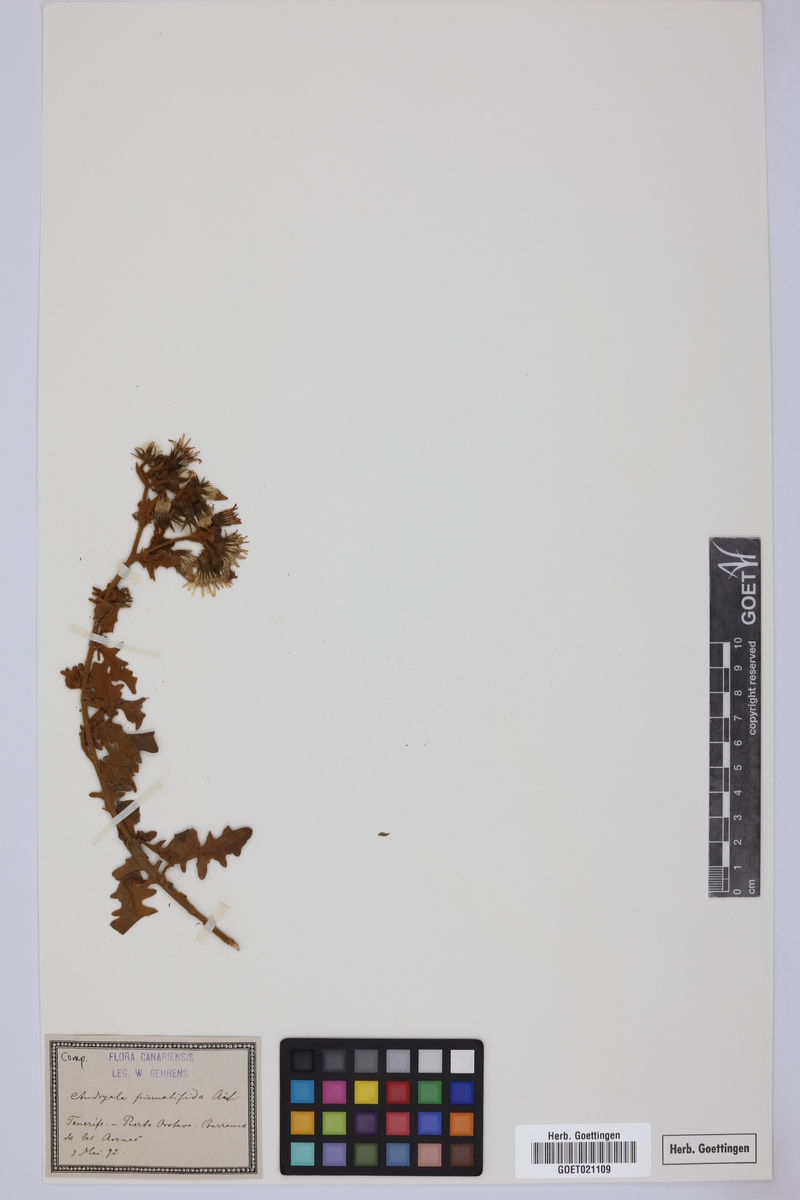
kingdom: Plantae
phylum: Tracheophyta
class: Magnoliopsida
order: Asterales
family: Asteraceae
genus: Andryala
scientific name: Andryala pinnatifida
